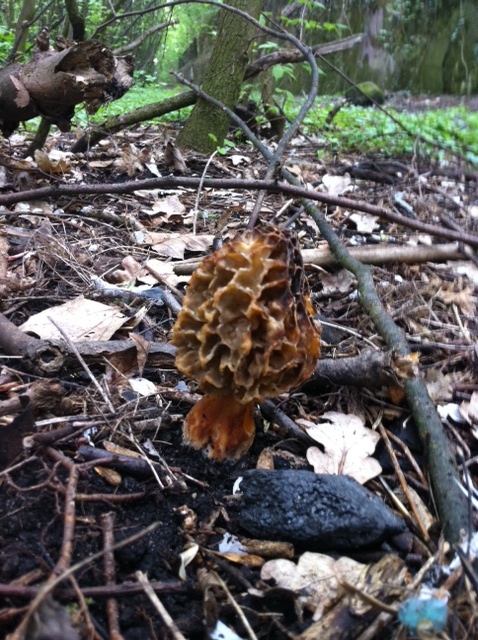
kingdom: Fungi
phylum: Ascomycota
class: Pezizomycetes
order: Pezizales
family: Morchellaceae
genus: Morchella
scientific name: Morchella esculenta
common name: spiselig morkel
